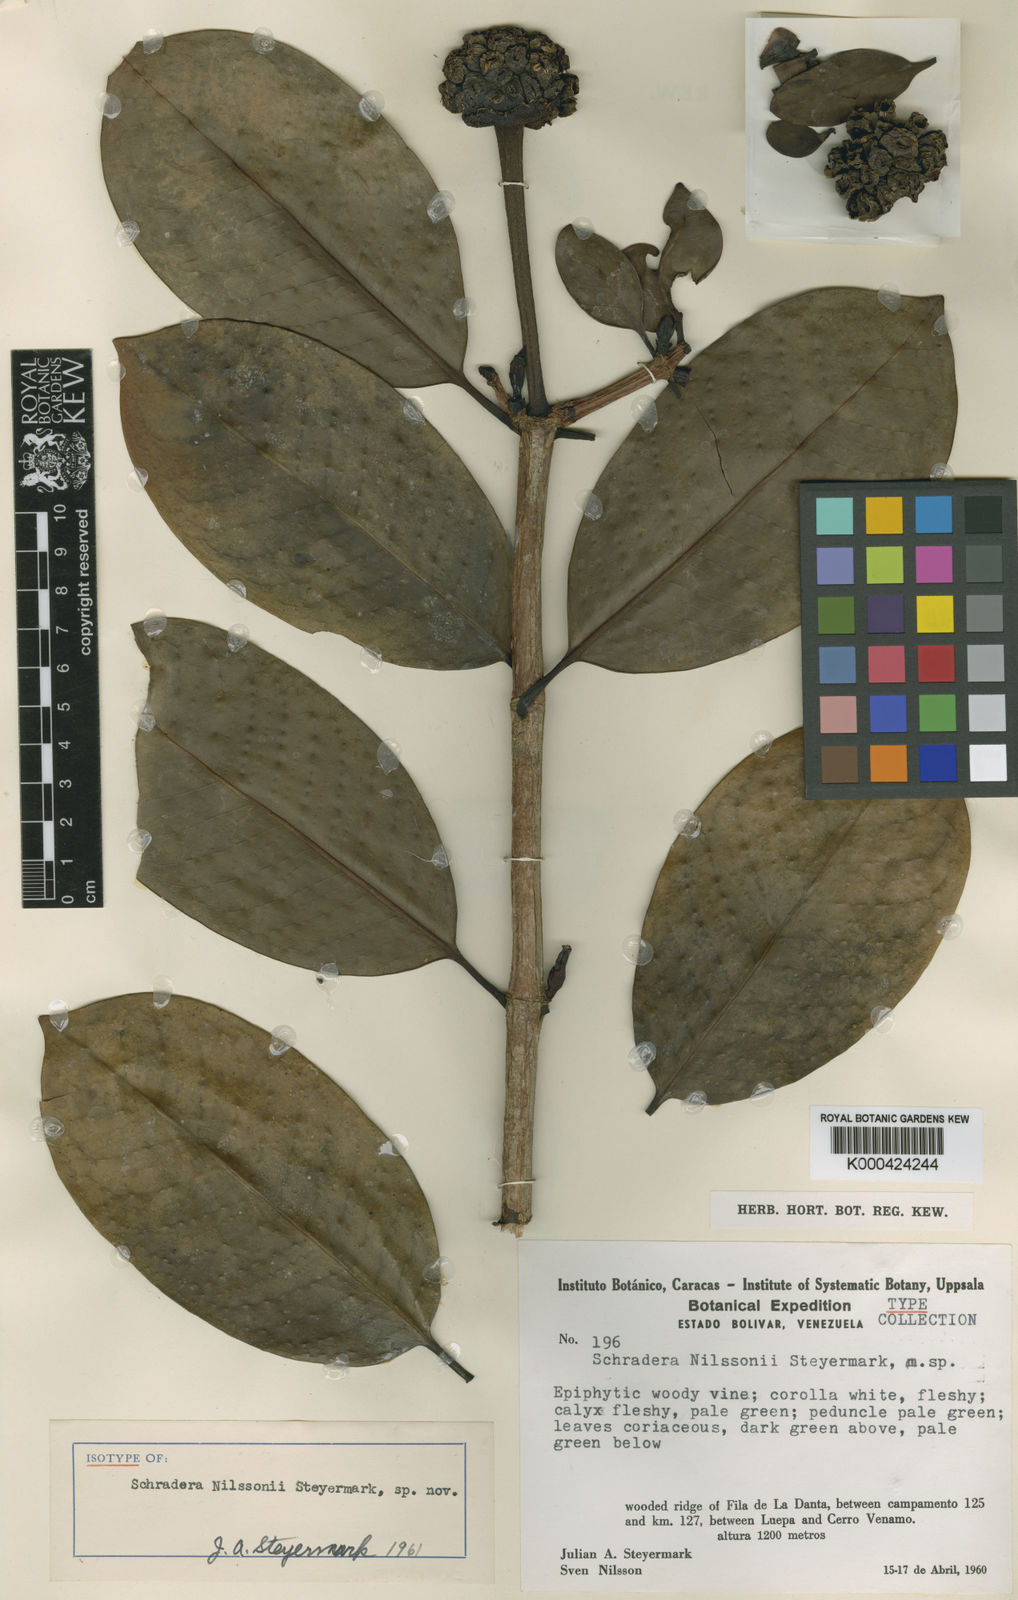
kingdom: Plantae
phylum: Tracheophyta
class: Magnoliopsida
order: Gentianales
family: Rubiaceae
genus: Schradera
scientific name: Schradera nilssonii
